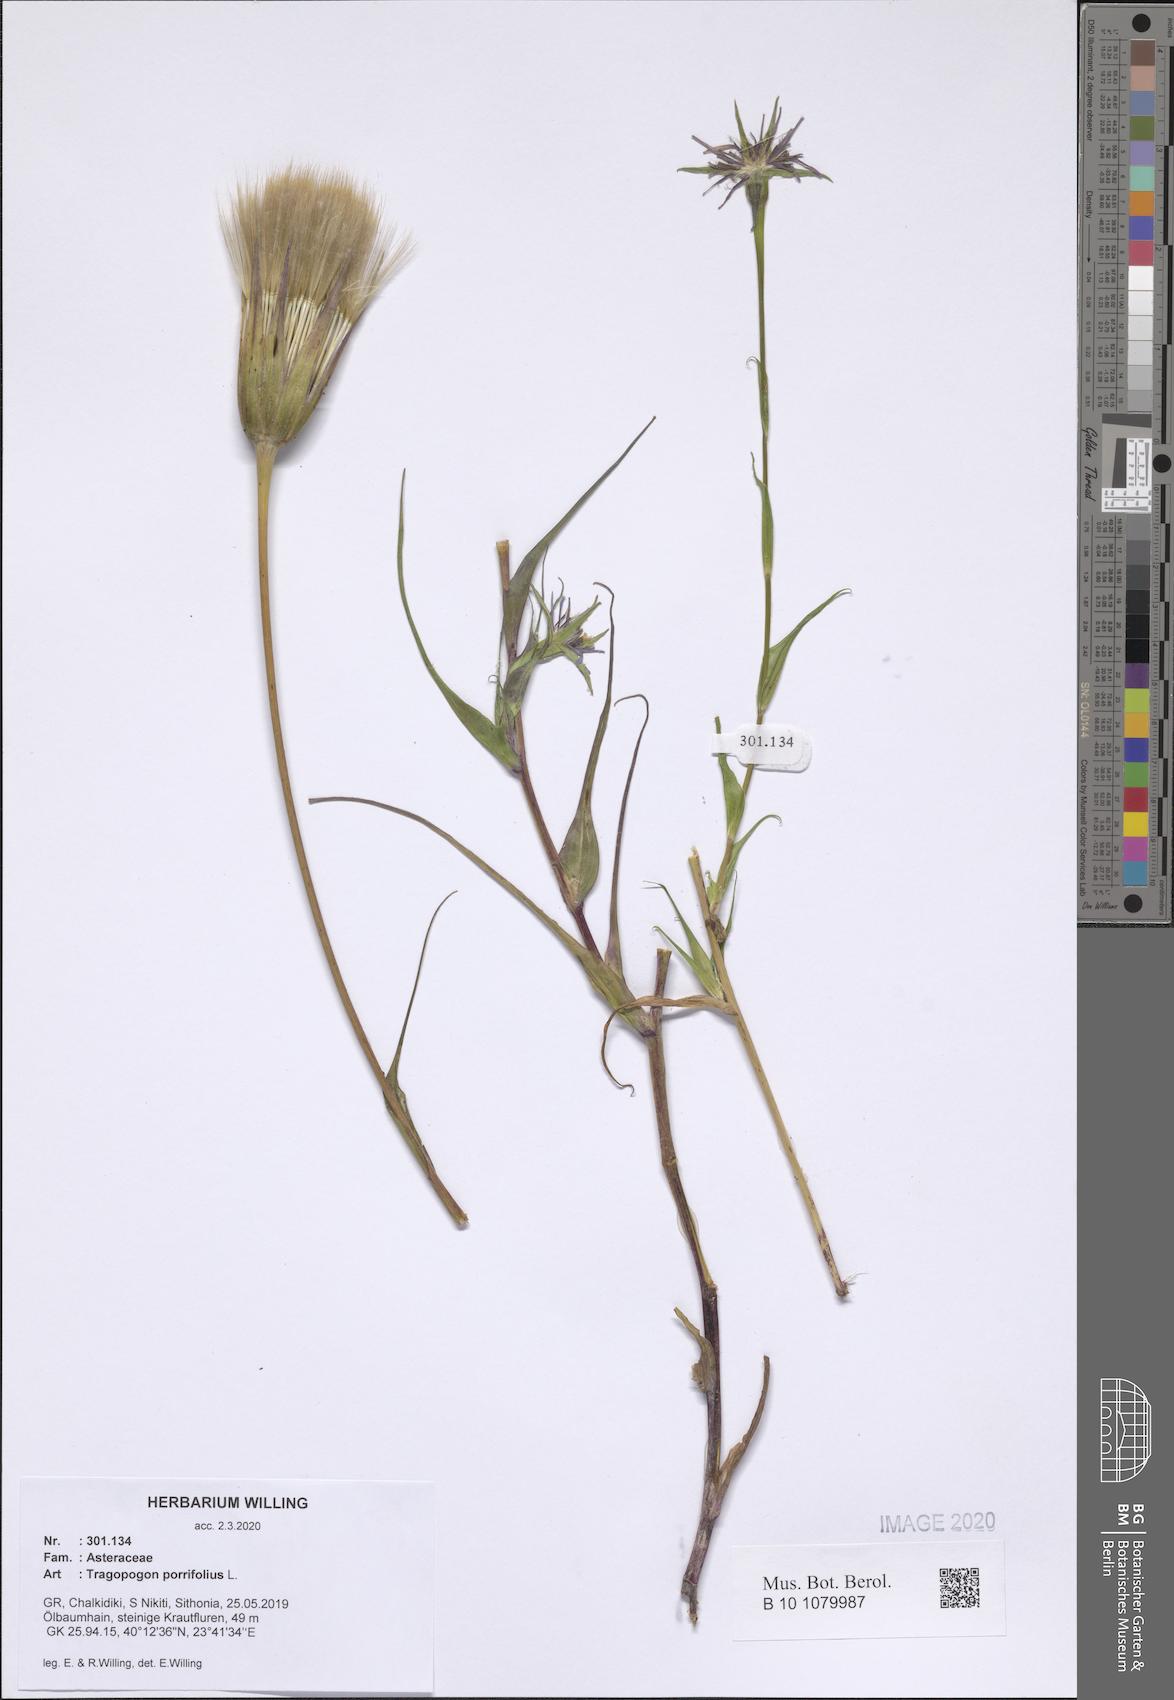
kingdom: Plantae
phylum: Tracheophyta
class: Magnoliopsida
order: Asterales
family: Asteraceae
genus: Tragopogon
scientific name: Tragopogon porrifolius
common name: Salsify
